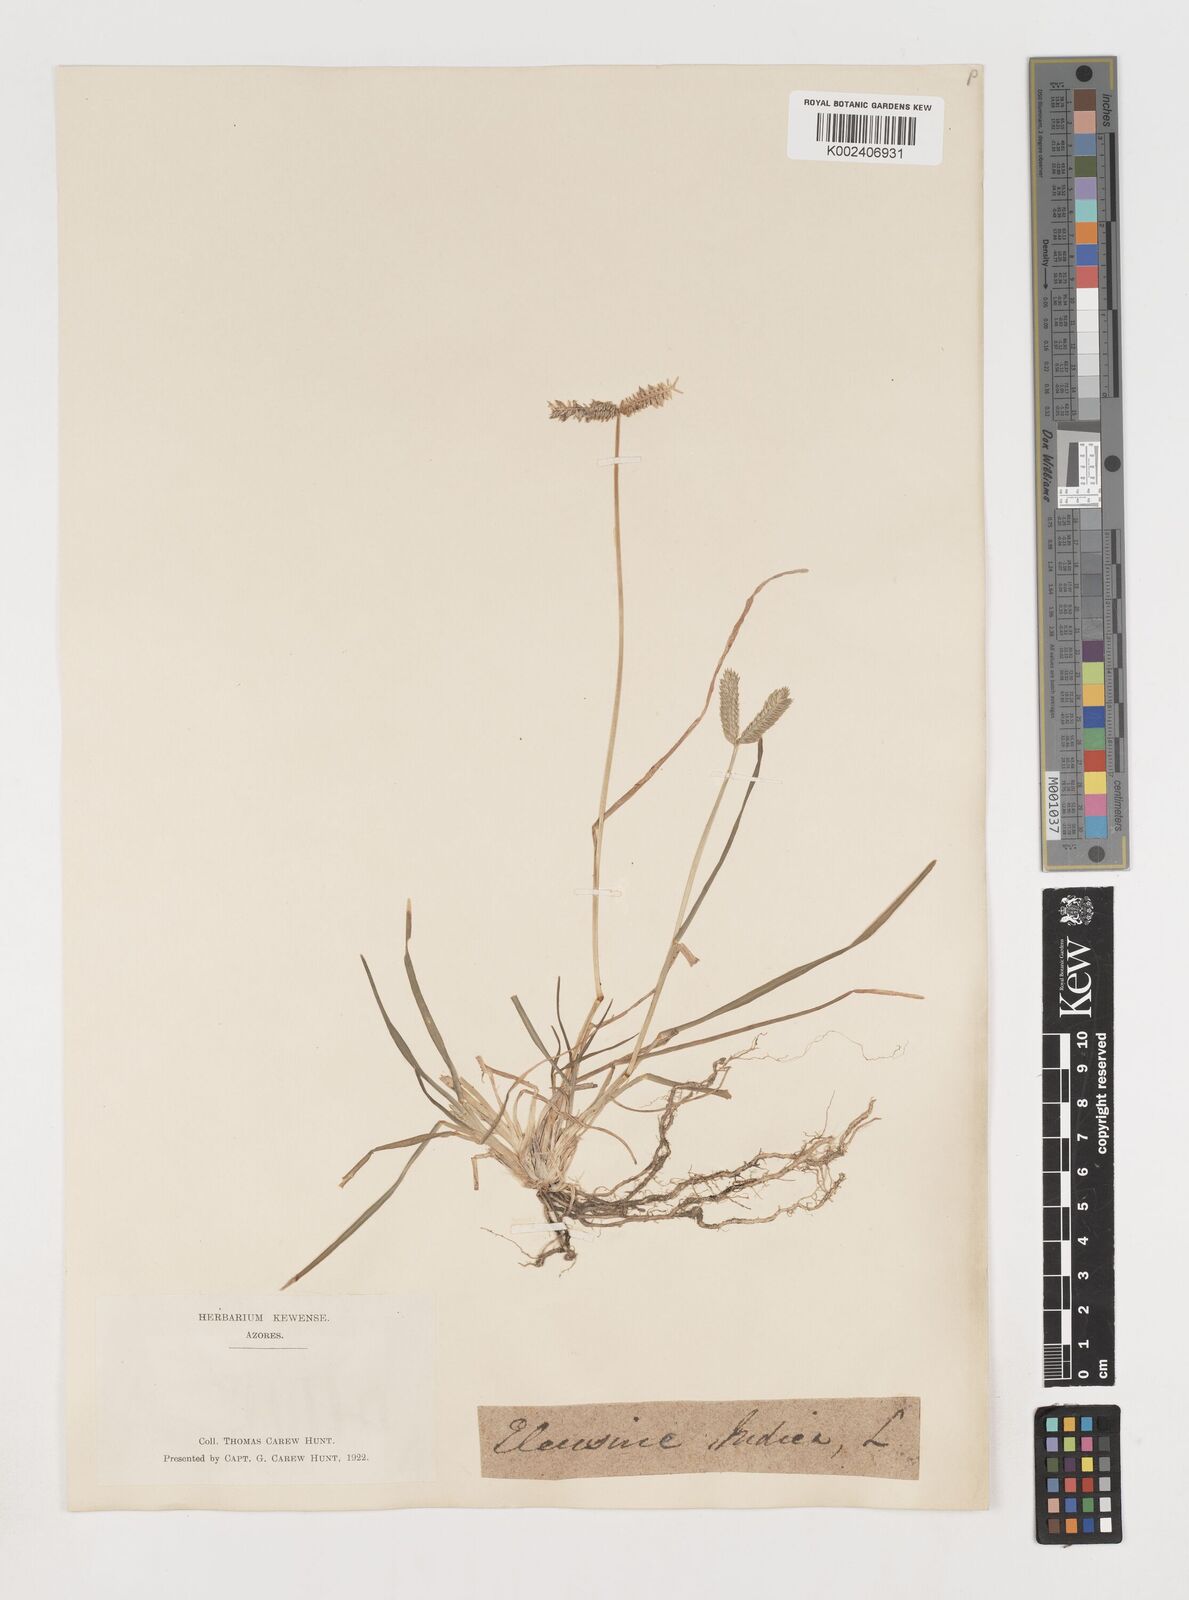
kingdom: Plantae
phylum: Tracheophyta
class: Liliopsida
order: Poales
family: Poaceae
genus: Eleusine
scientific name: Eleusine tristachya
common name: American yard-grass
